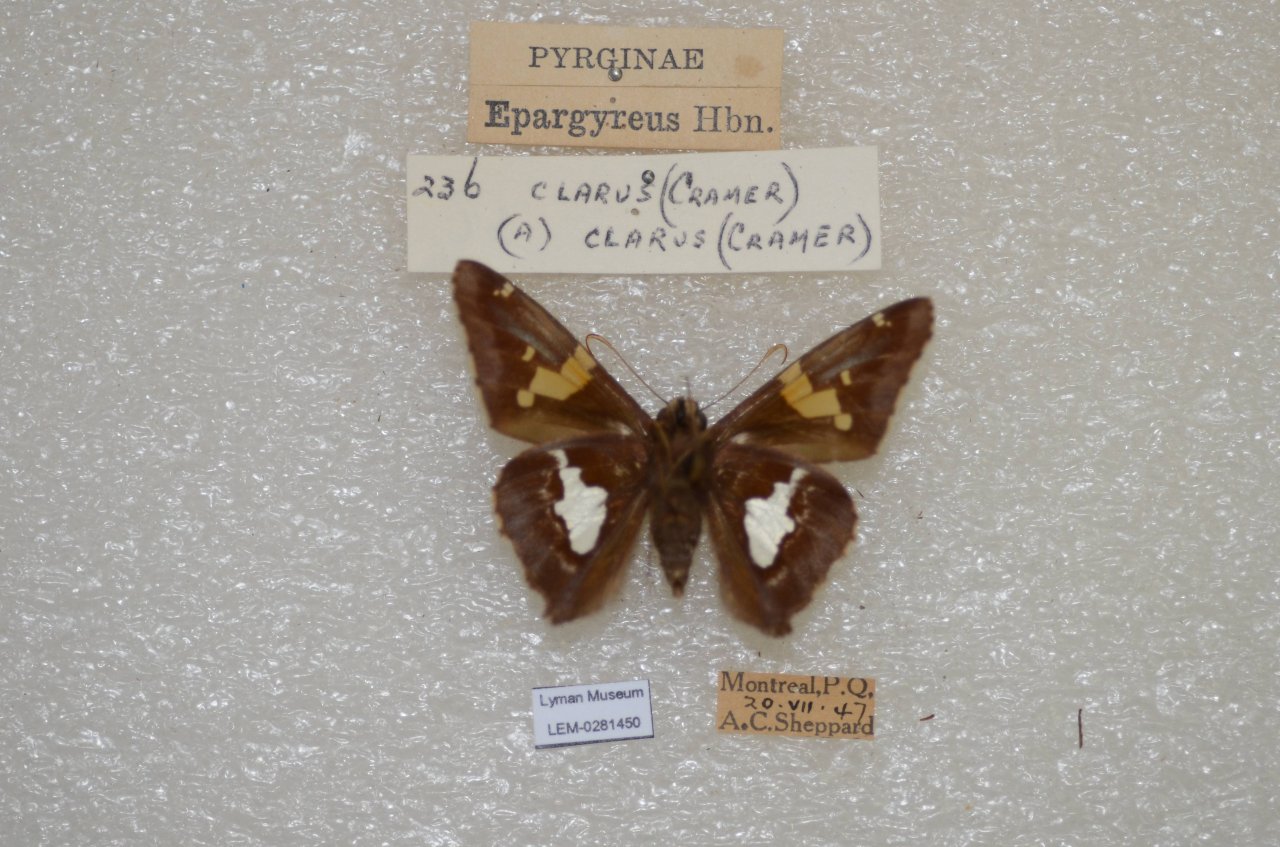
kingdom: Animalia
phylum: Arthropoda
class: Insecta
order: Lepidoptera
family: Hesperiidae
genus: Epargyreus
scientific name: Epargyreus clarus
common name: Silver-spotted Skipper
